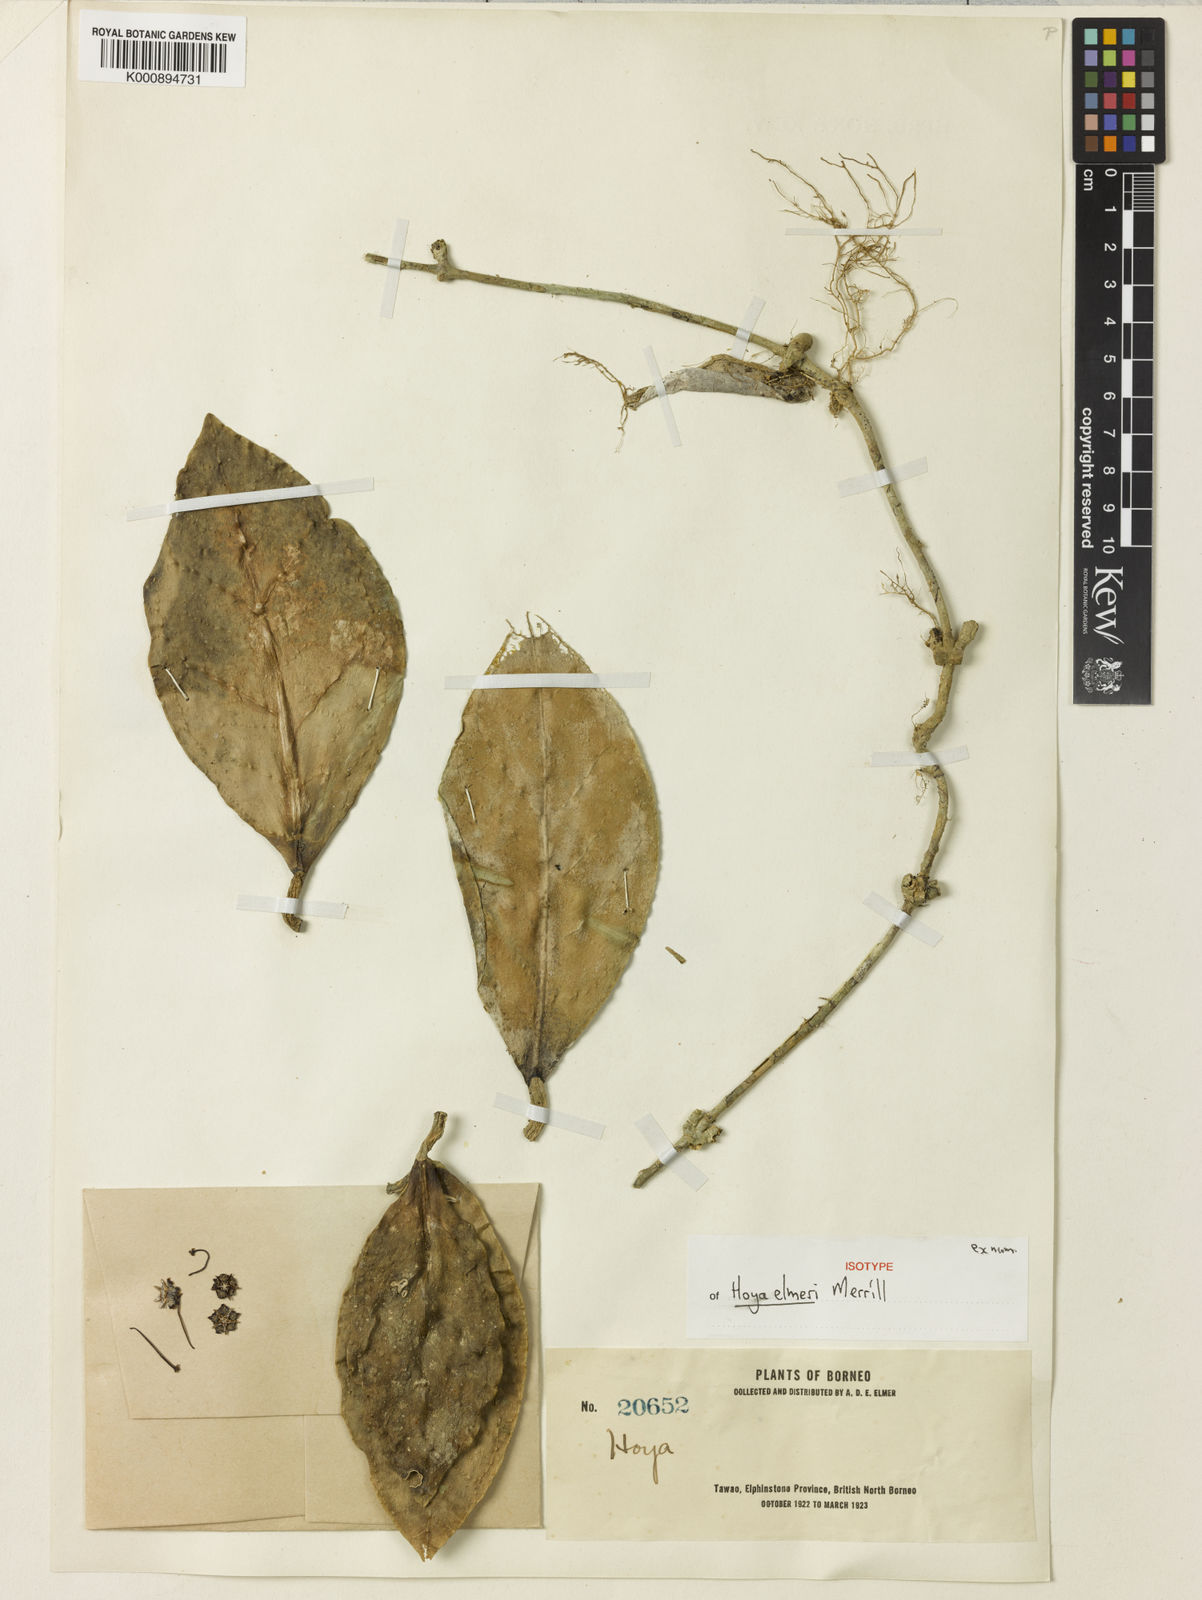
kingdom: Plantae
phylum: Tracheophyta
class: Magnoliopsida
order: Gentianales
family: Apocynaceae
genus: Hoya
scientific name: Hoya elmeri
